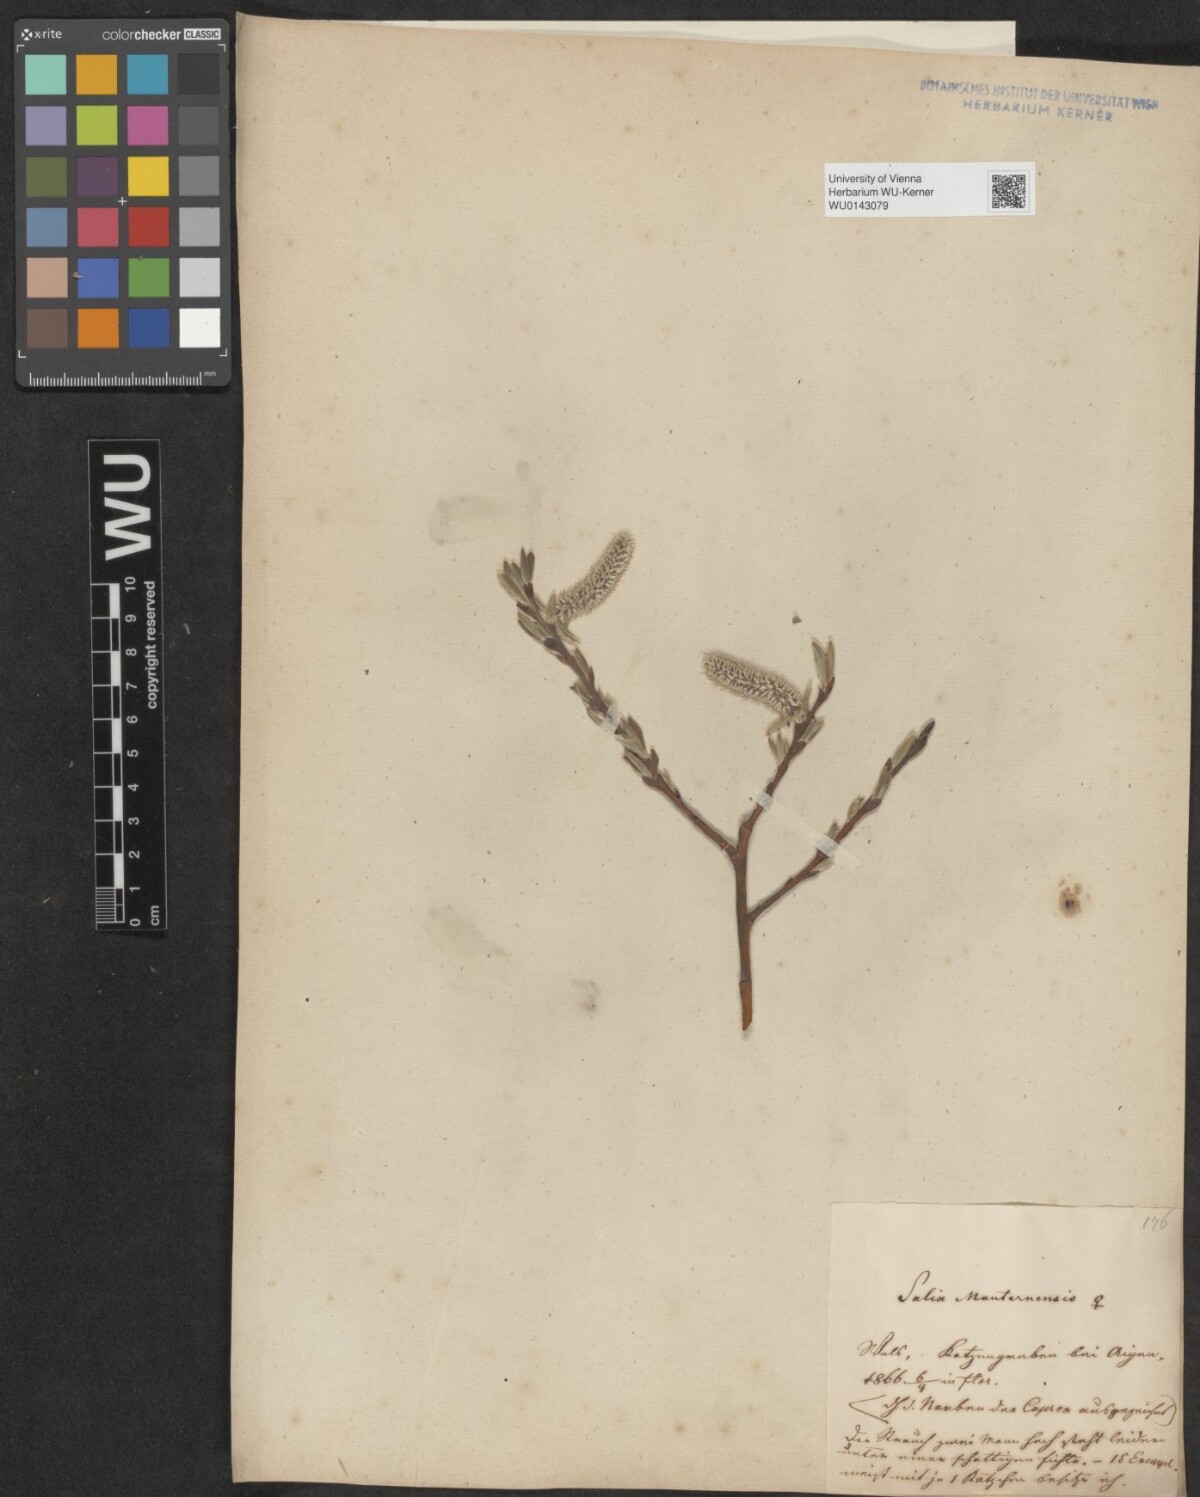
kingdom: Plantae
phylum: Tracheophyta
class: Magnoliopsida
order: Malpighiales
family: Salicaceae
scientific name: Salicaceae
